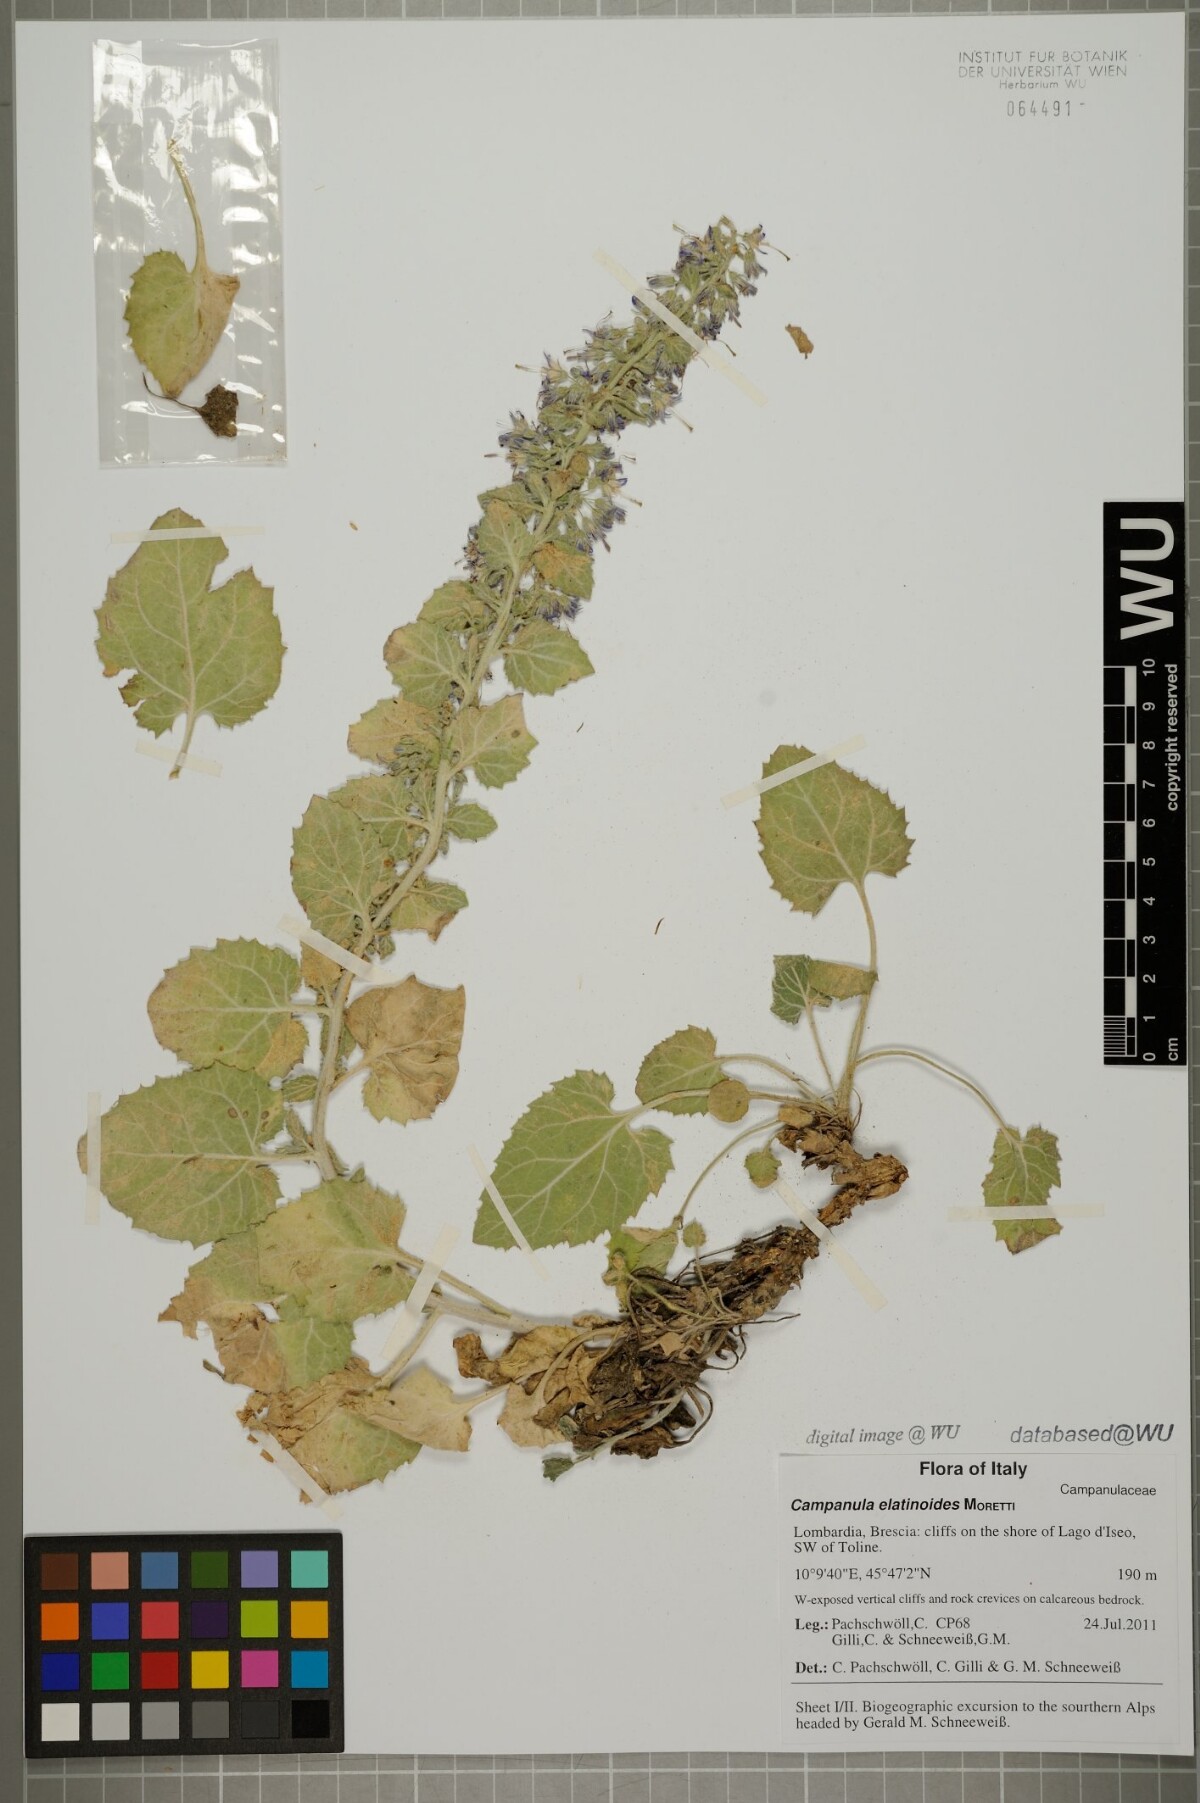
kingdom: Plantae
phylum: Tracheophyta
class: Magnoliopsida
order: Asterales
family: Campanulaceae
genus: Campanula
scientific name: Campanula elatinoides
